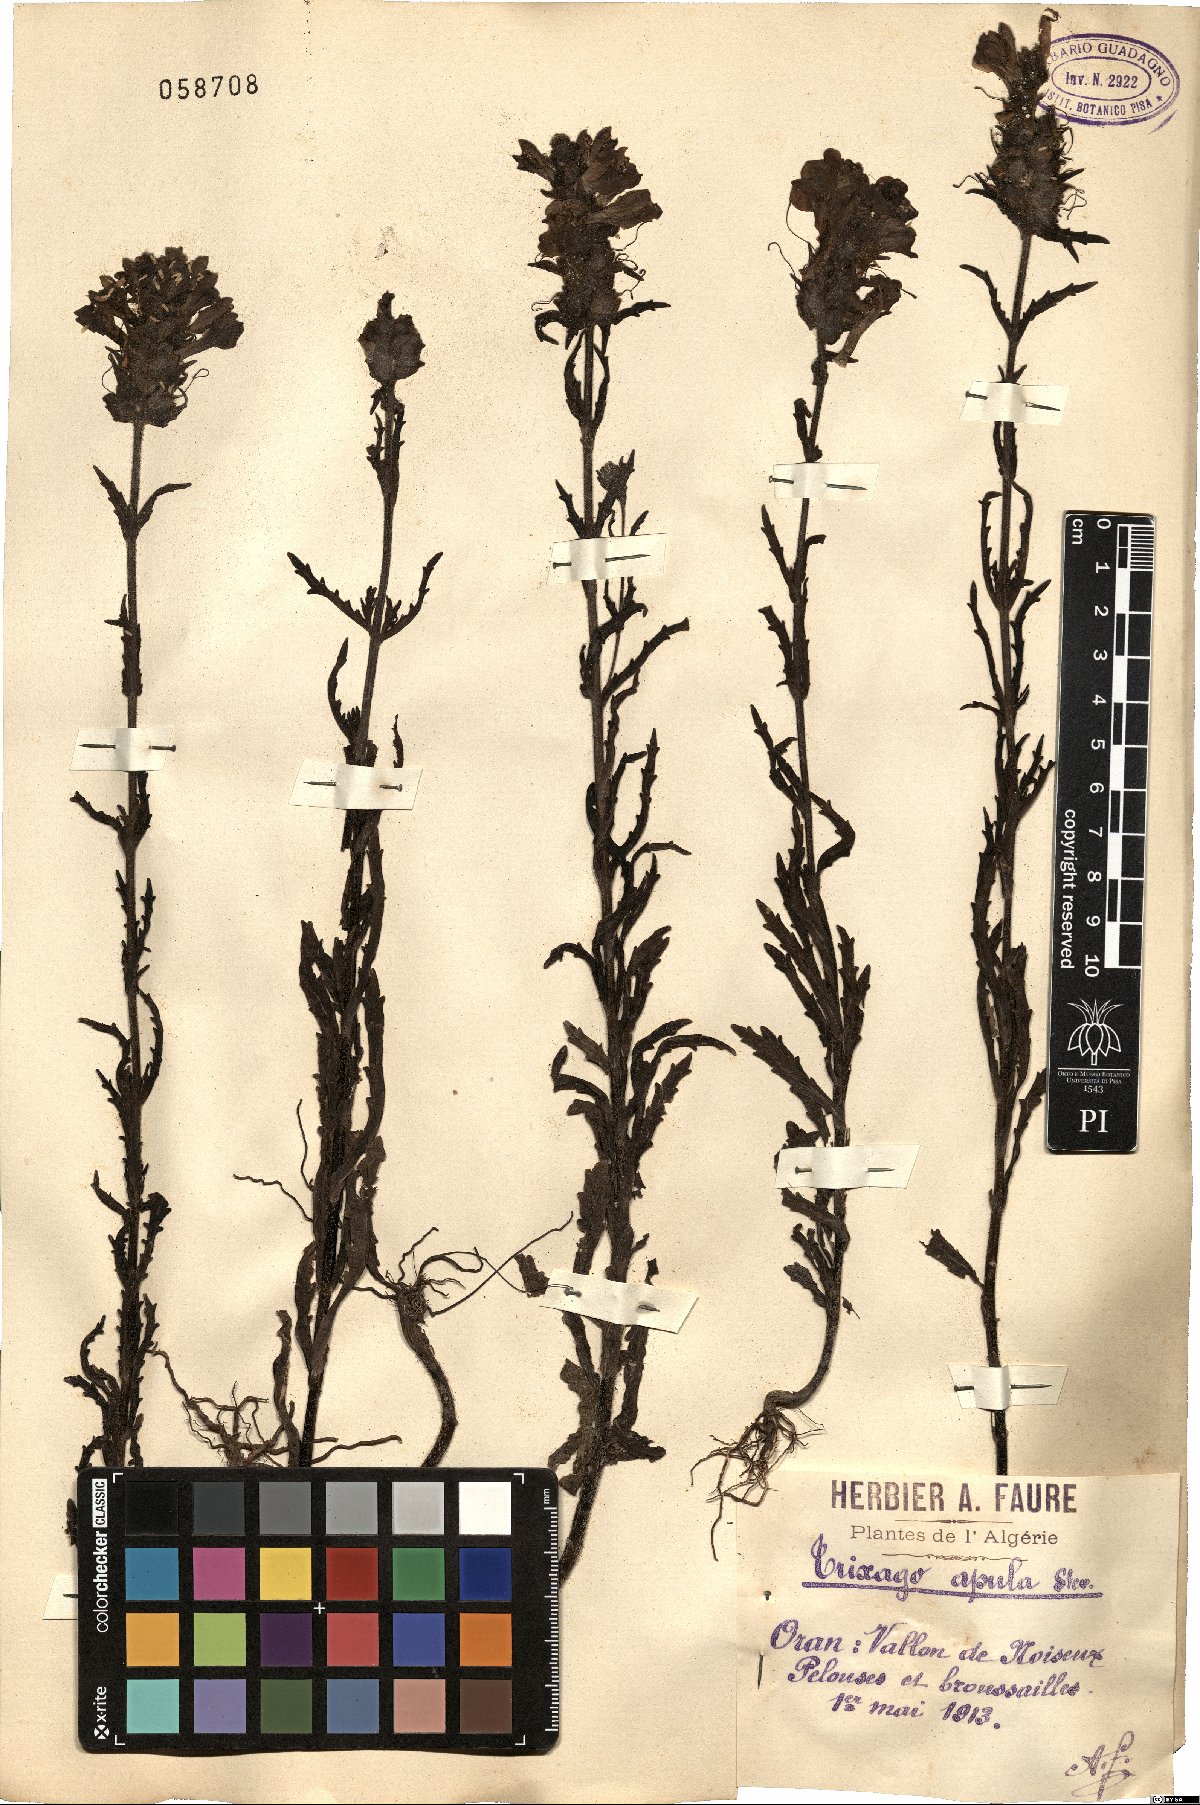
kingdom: Plantae
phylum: Tracheophyta
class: Magnoliopsida
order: Lamiales
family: Orobanchaceae
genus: Bellardia
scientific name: Bellardia trixago
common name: Mediterranean lineseed
